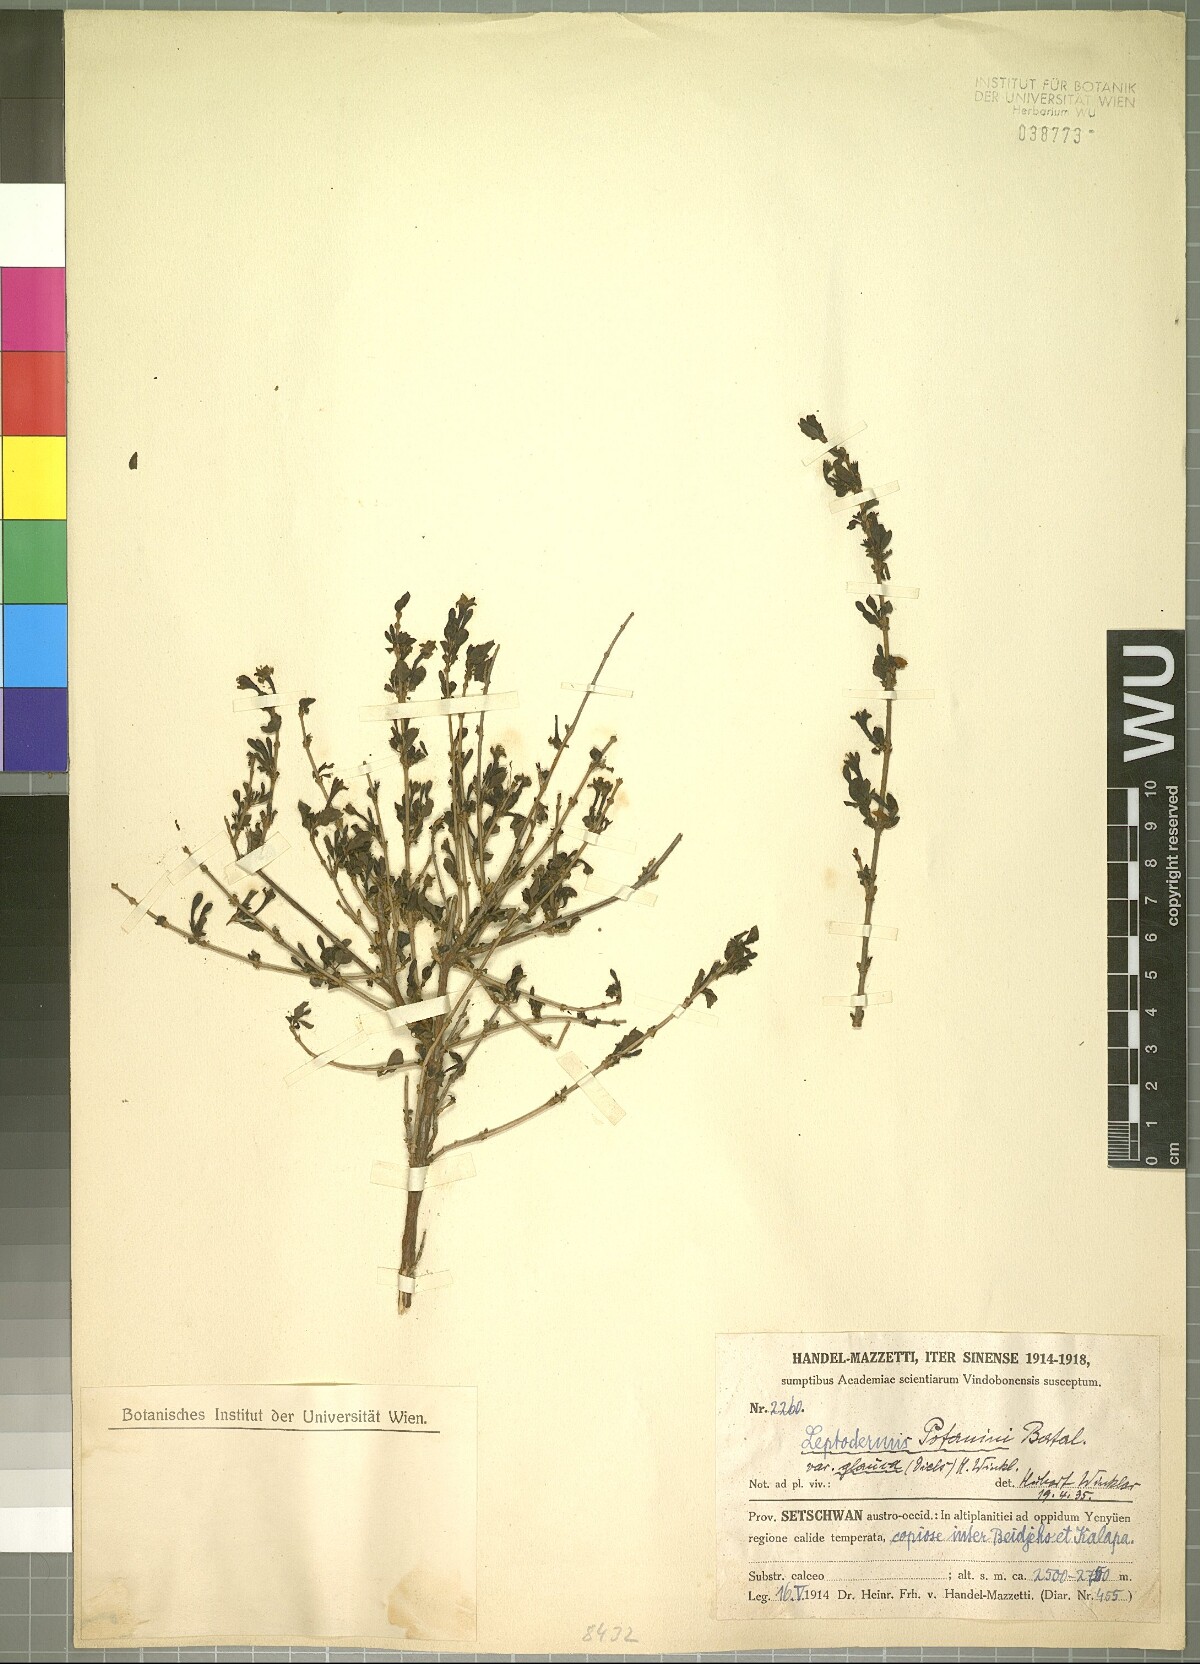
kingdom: Plantae
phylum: Tracheophyta
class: Magnoliopsida
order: Gentianales
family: Rubiaceae
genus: Leptodermis
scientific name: Leptodermis potaninii
